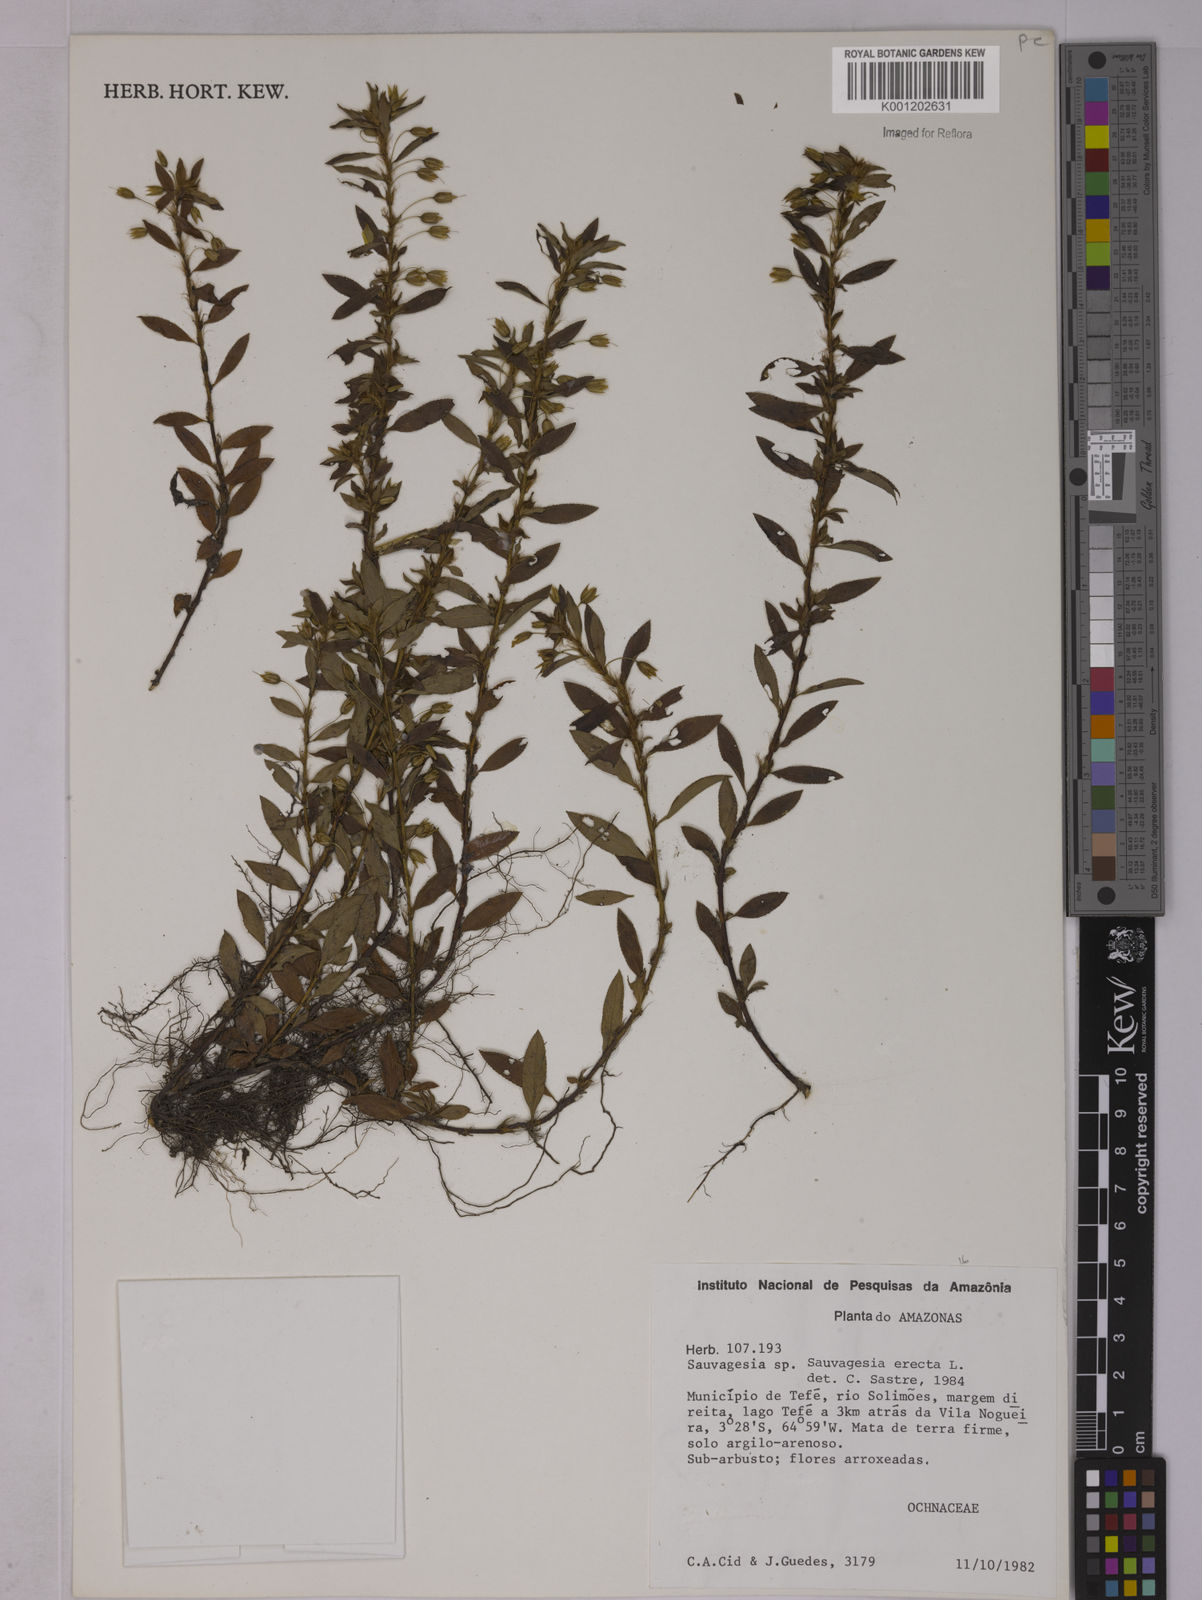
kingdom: Plantae
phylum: Tracheophyta
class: Magnoliopsida
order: Malpighiales
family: Ochnaceae
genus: Sauvagesia
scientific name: Sauvagesia erecta
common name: Creole tea
